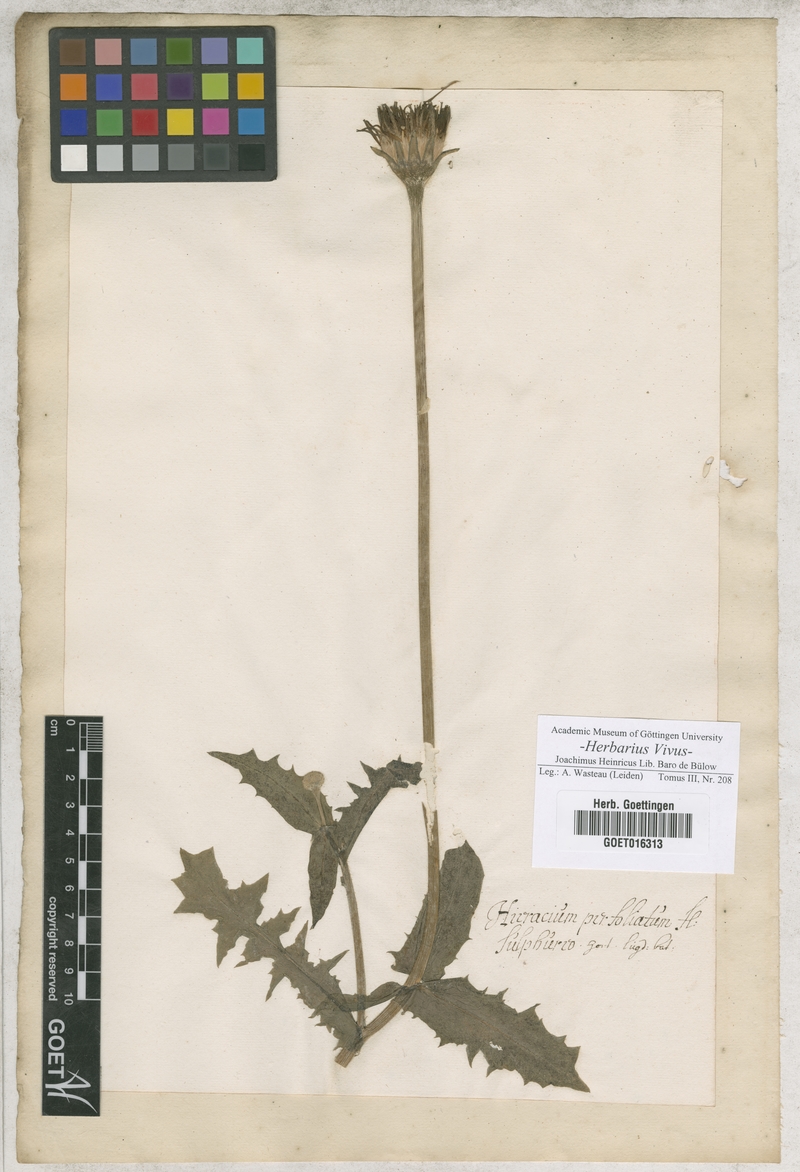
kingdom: Plantae
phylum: Tracheophyta
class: Magnoliopsida
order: Asterales
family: Asteraceae
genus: Hieracium
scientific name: Hieracium
